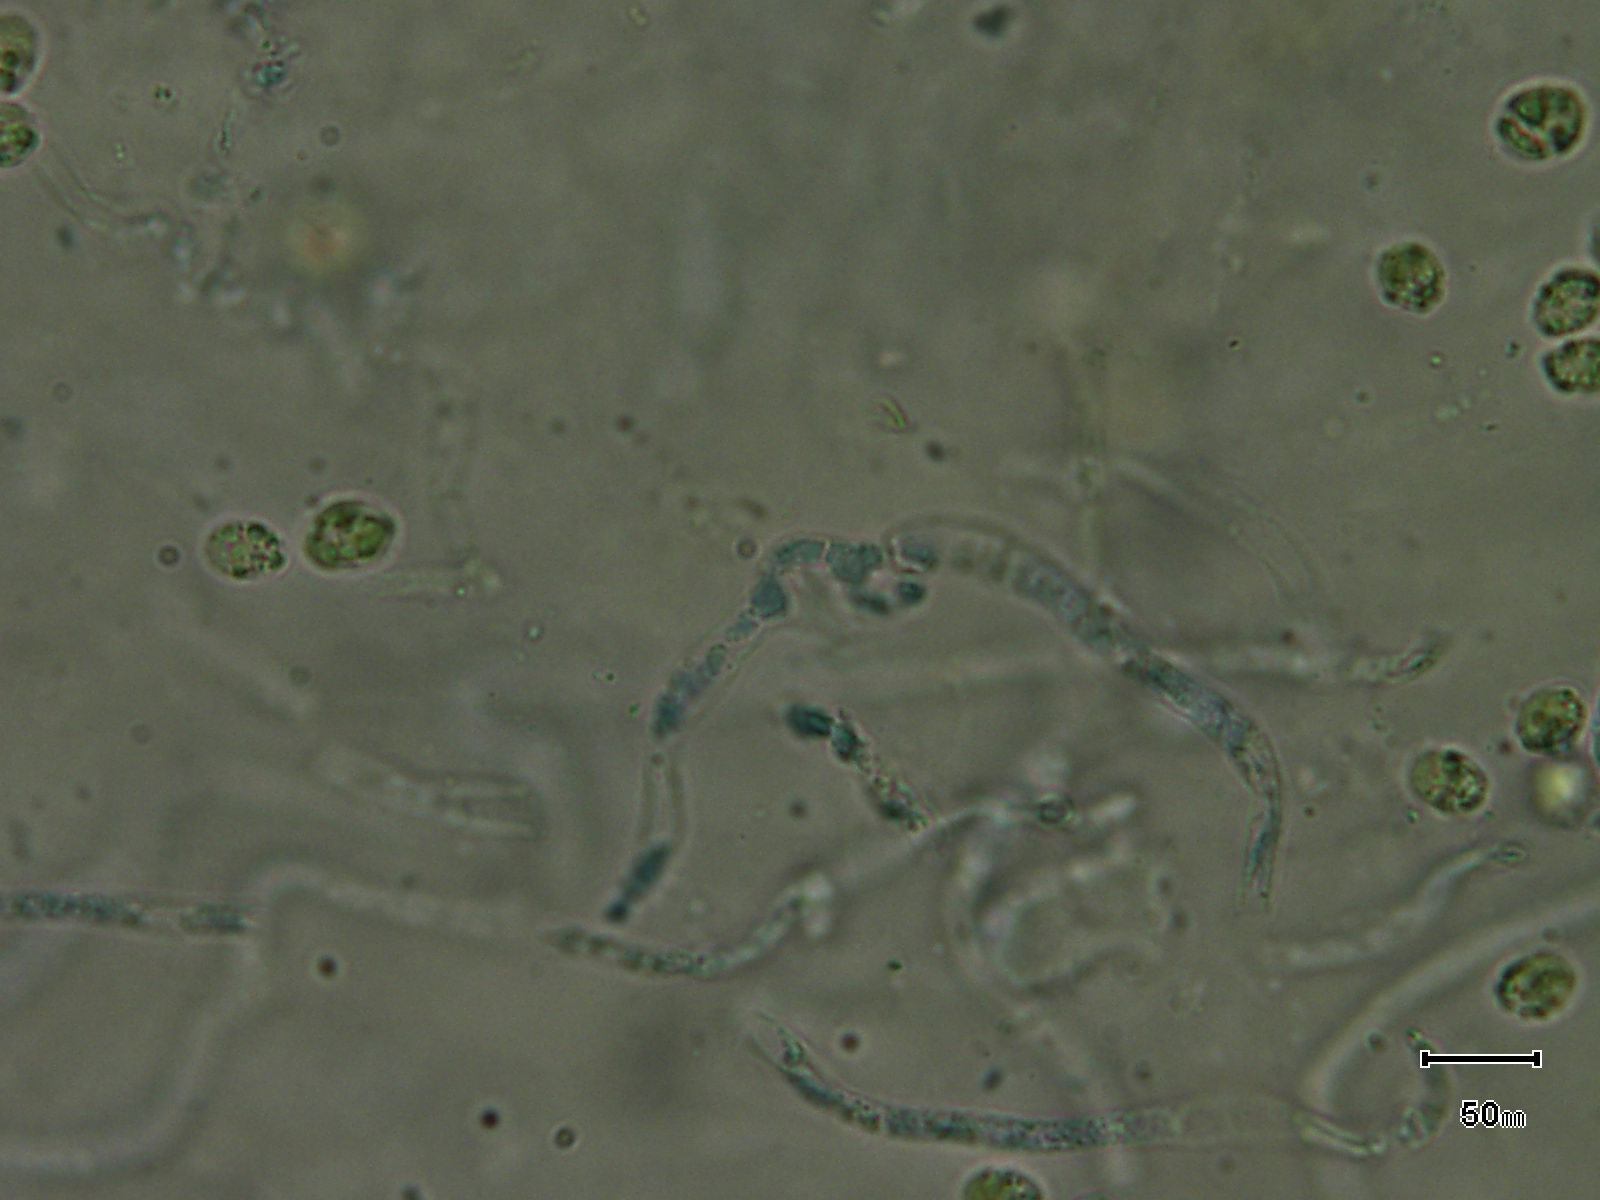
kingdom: Fungi
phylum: Basidiomycota
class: Agaricomycetes
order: Auriculariales
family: Auriculariaceae
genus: Exidia
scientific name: Exidia nigricans
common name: almindelig bævretop
